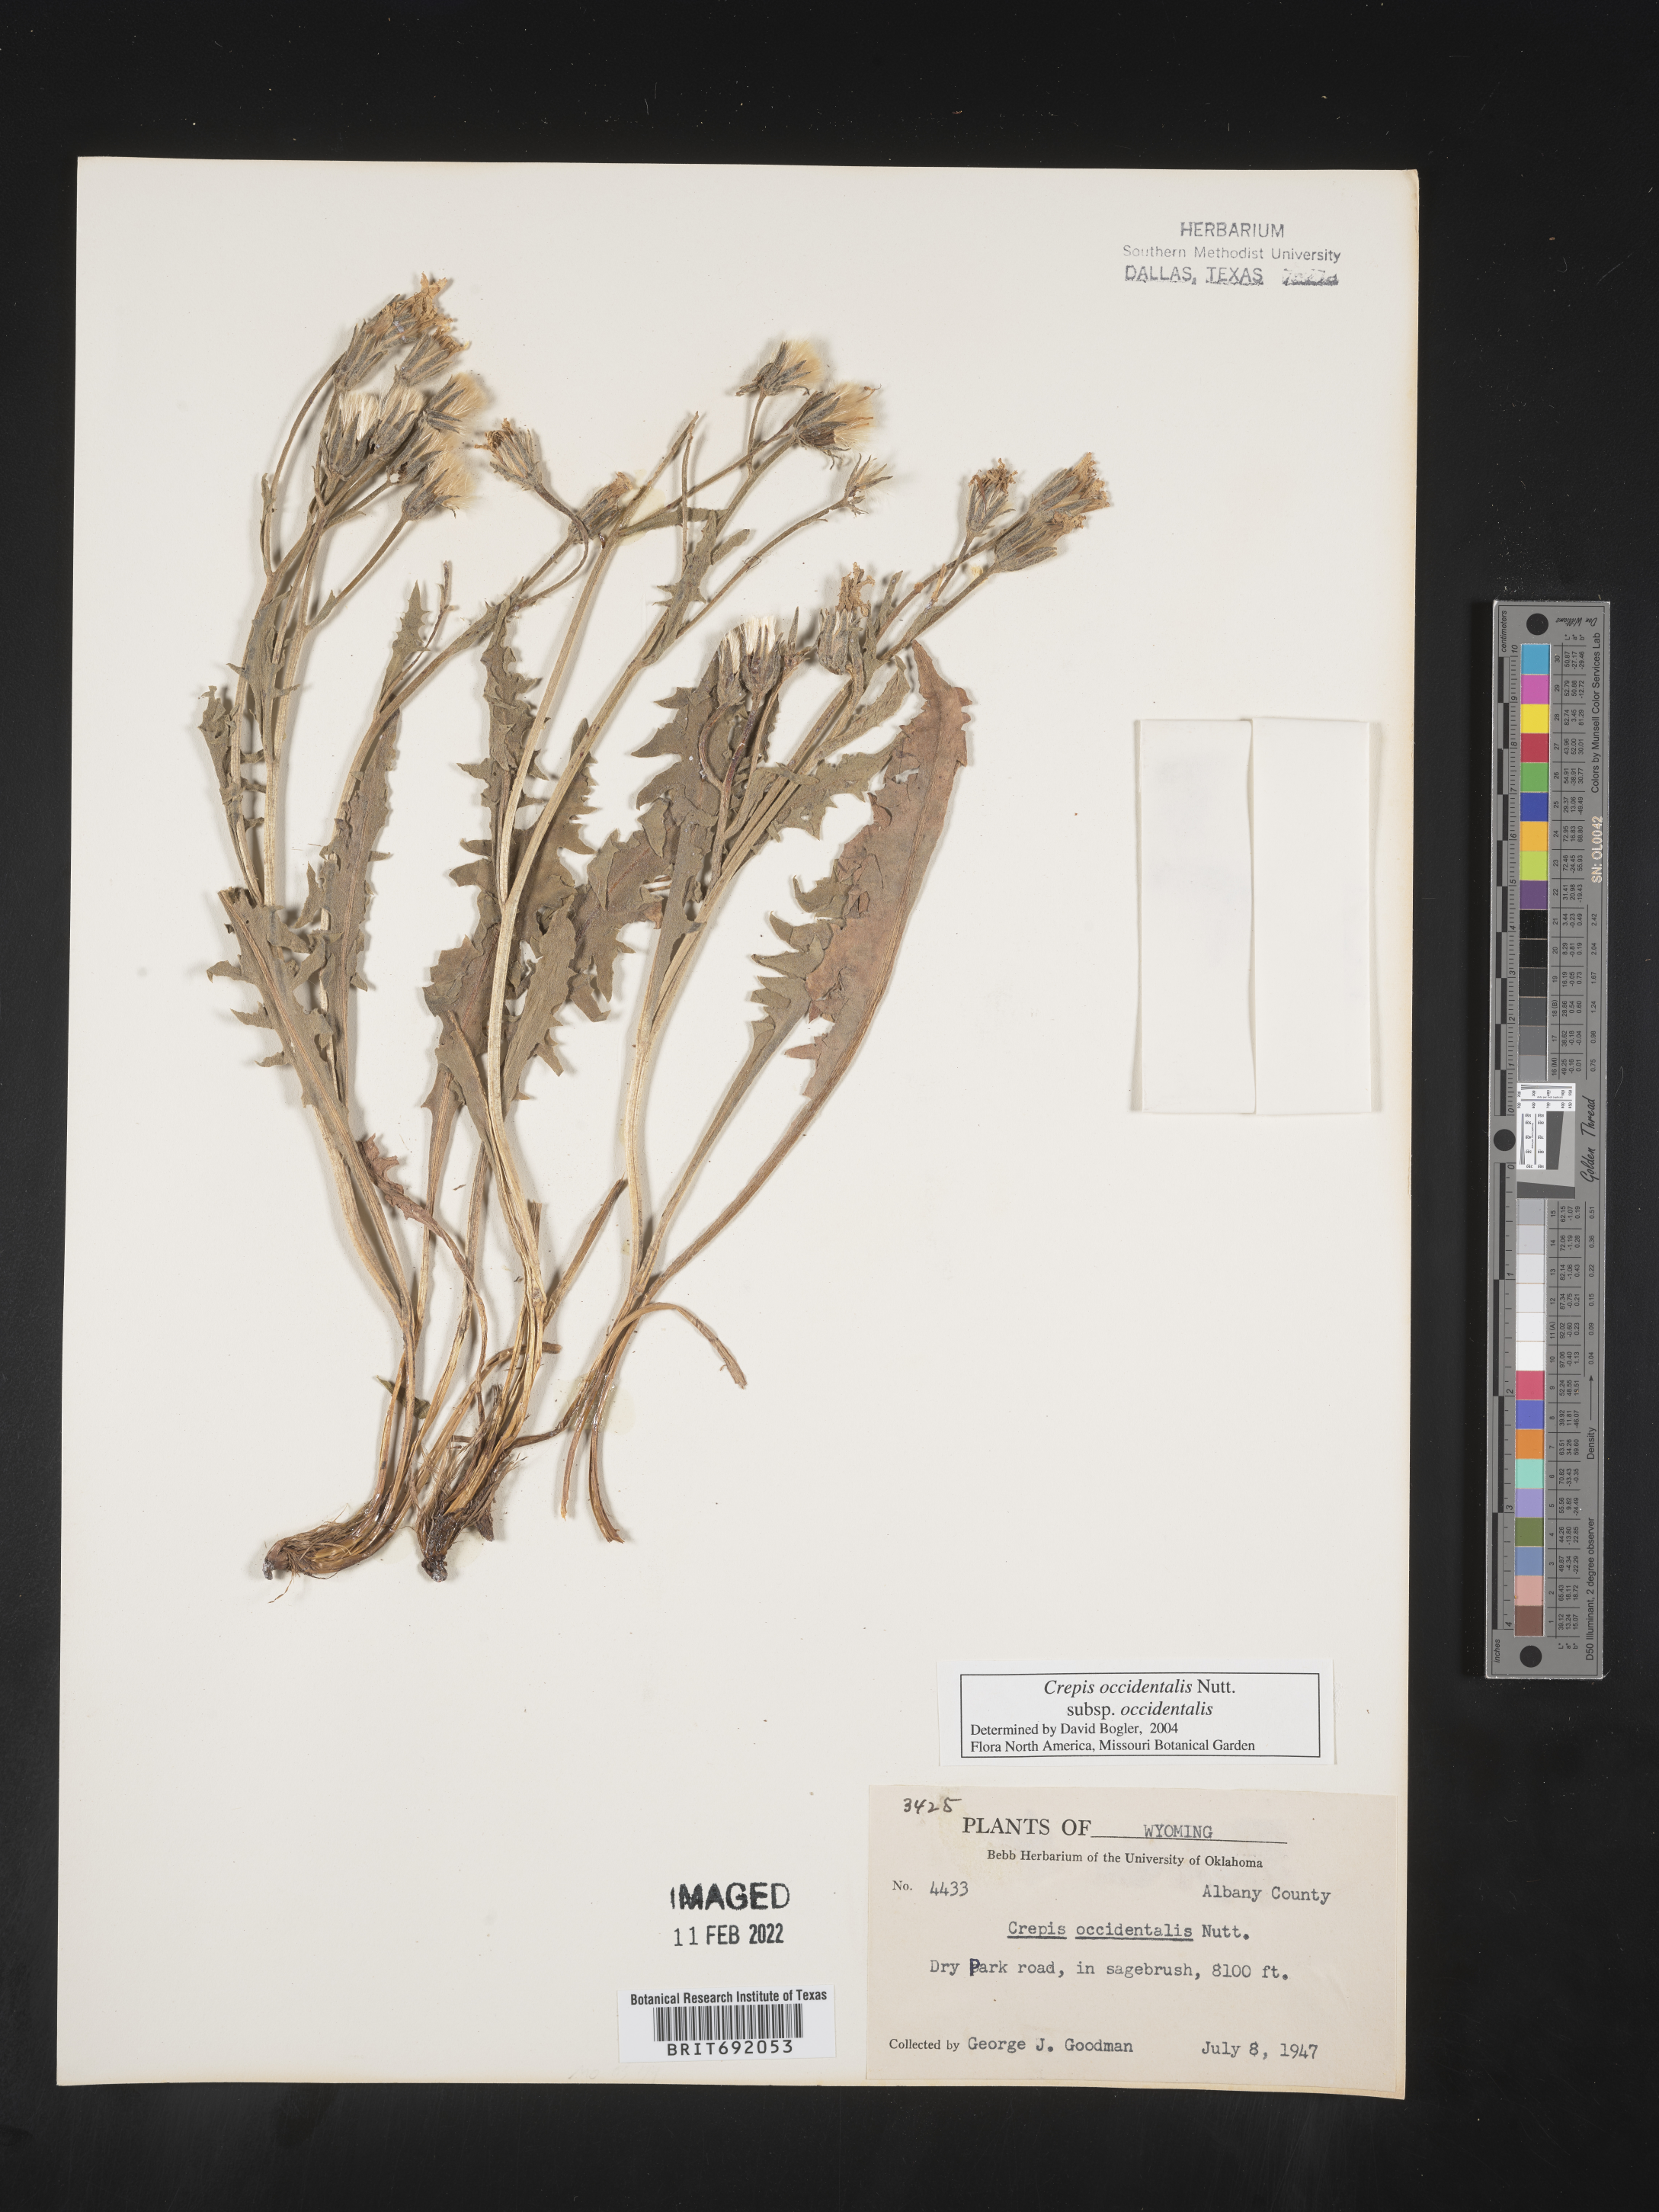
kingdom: Plantae
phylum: Tracheophyta
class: Magnoliopsida
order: Asterales
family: Asteraceae
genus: Crepis
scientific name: Crepis occidentalis
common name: Gray hawk's-beard
